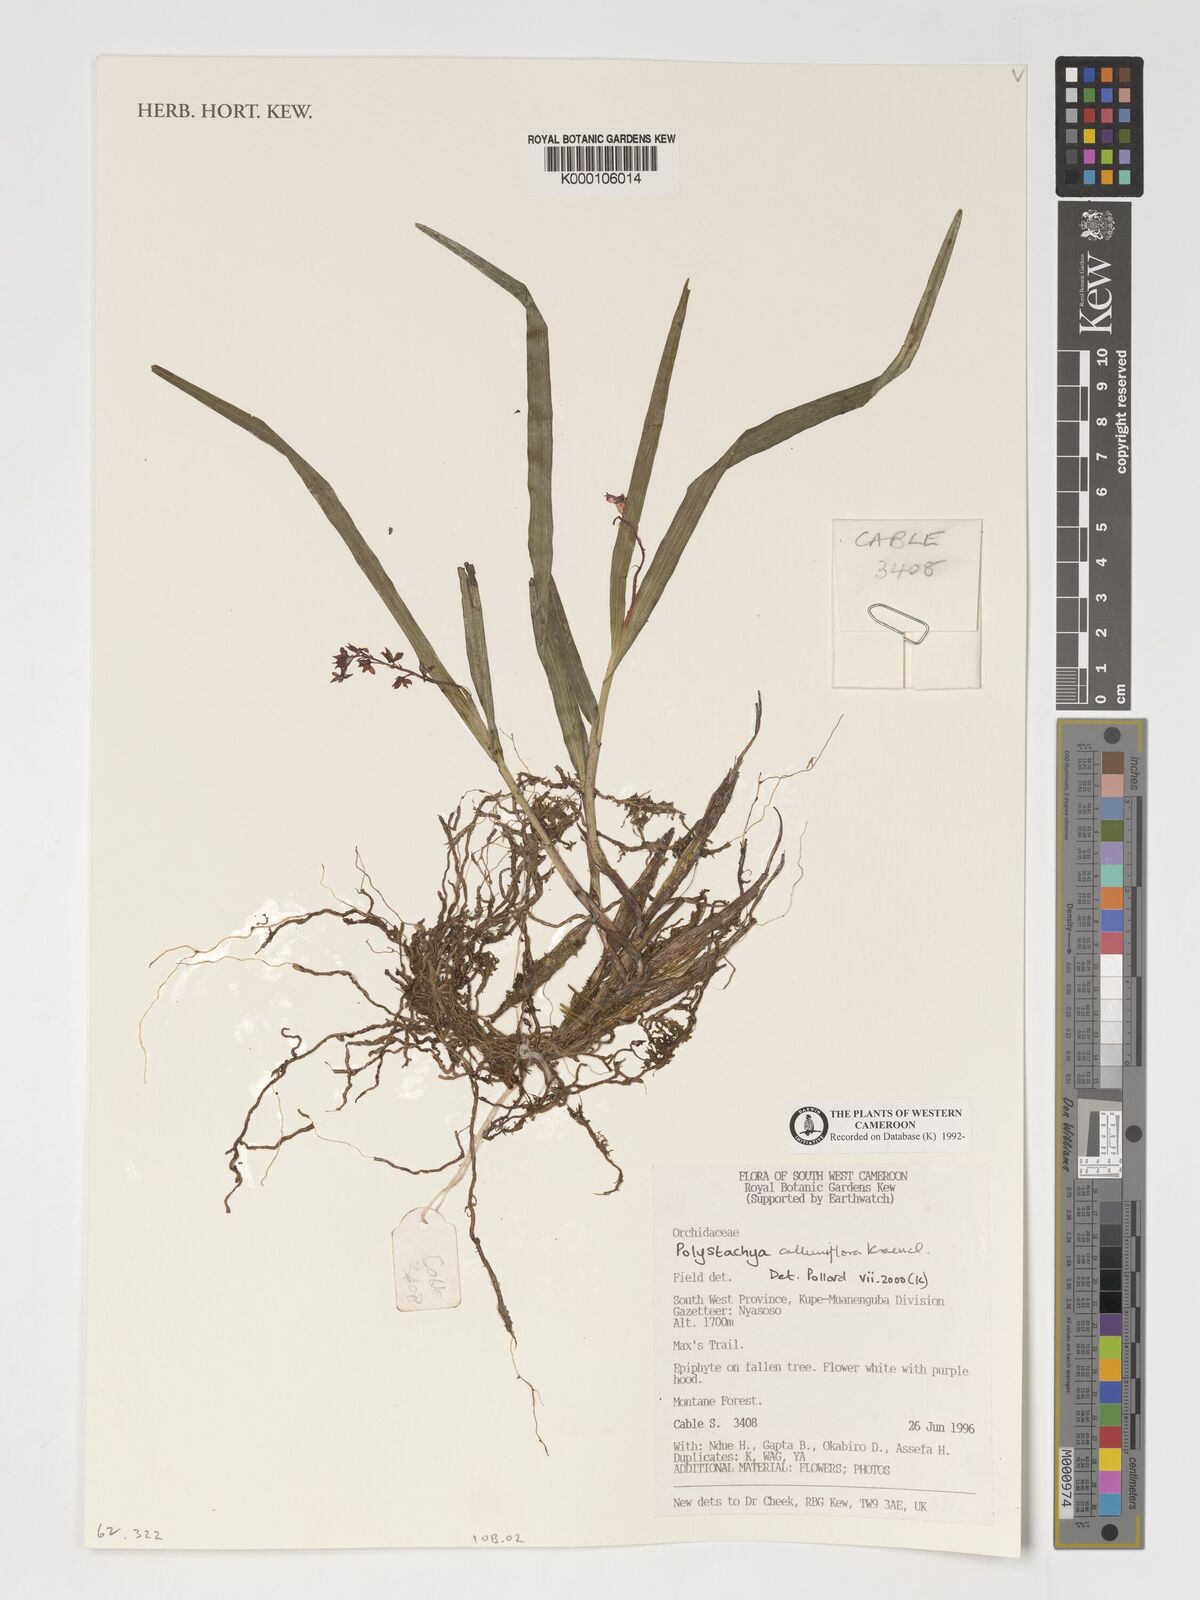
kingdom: Plantae
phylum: Tracheophyta
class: Liliopsida
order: Asparagales
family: Orchidaceae
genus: Polystachya
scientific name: Polystachya calluniflora
